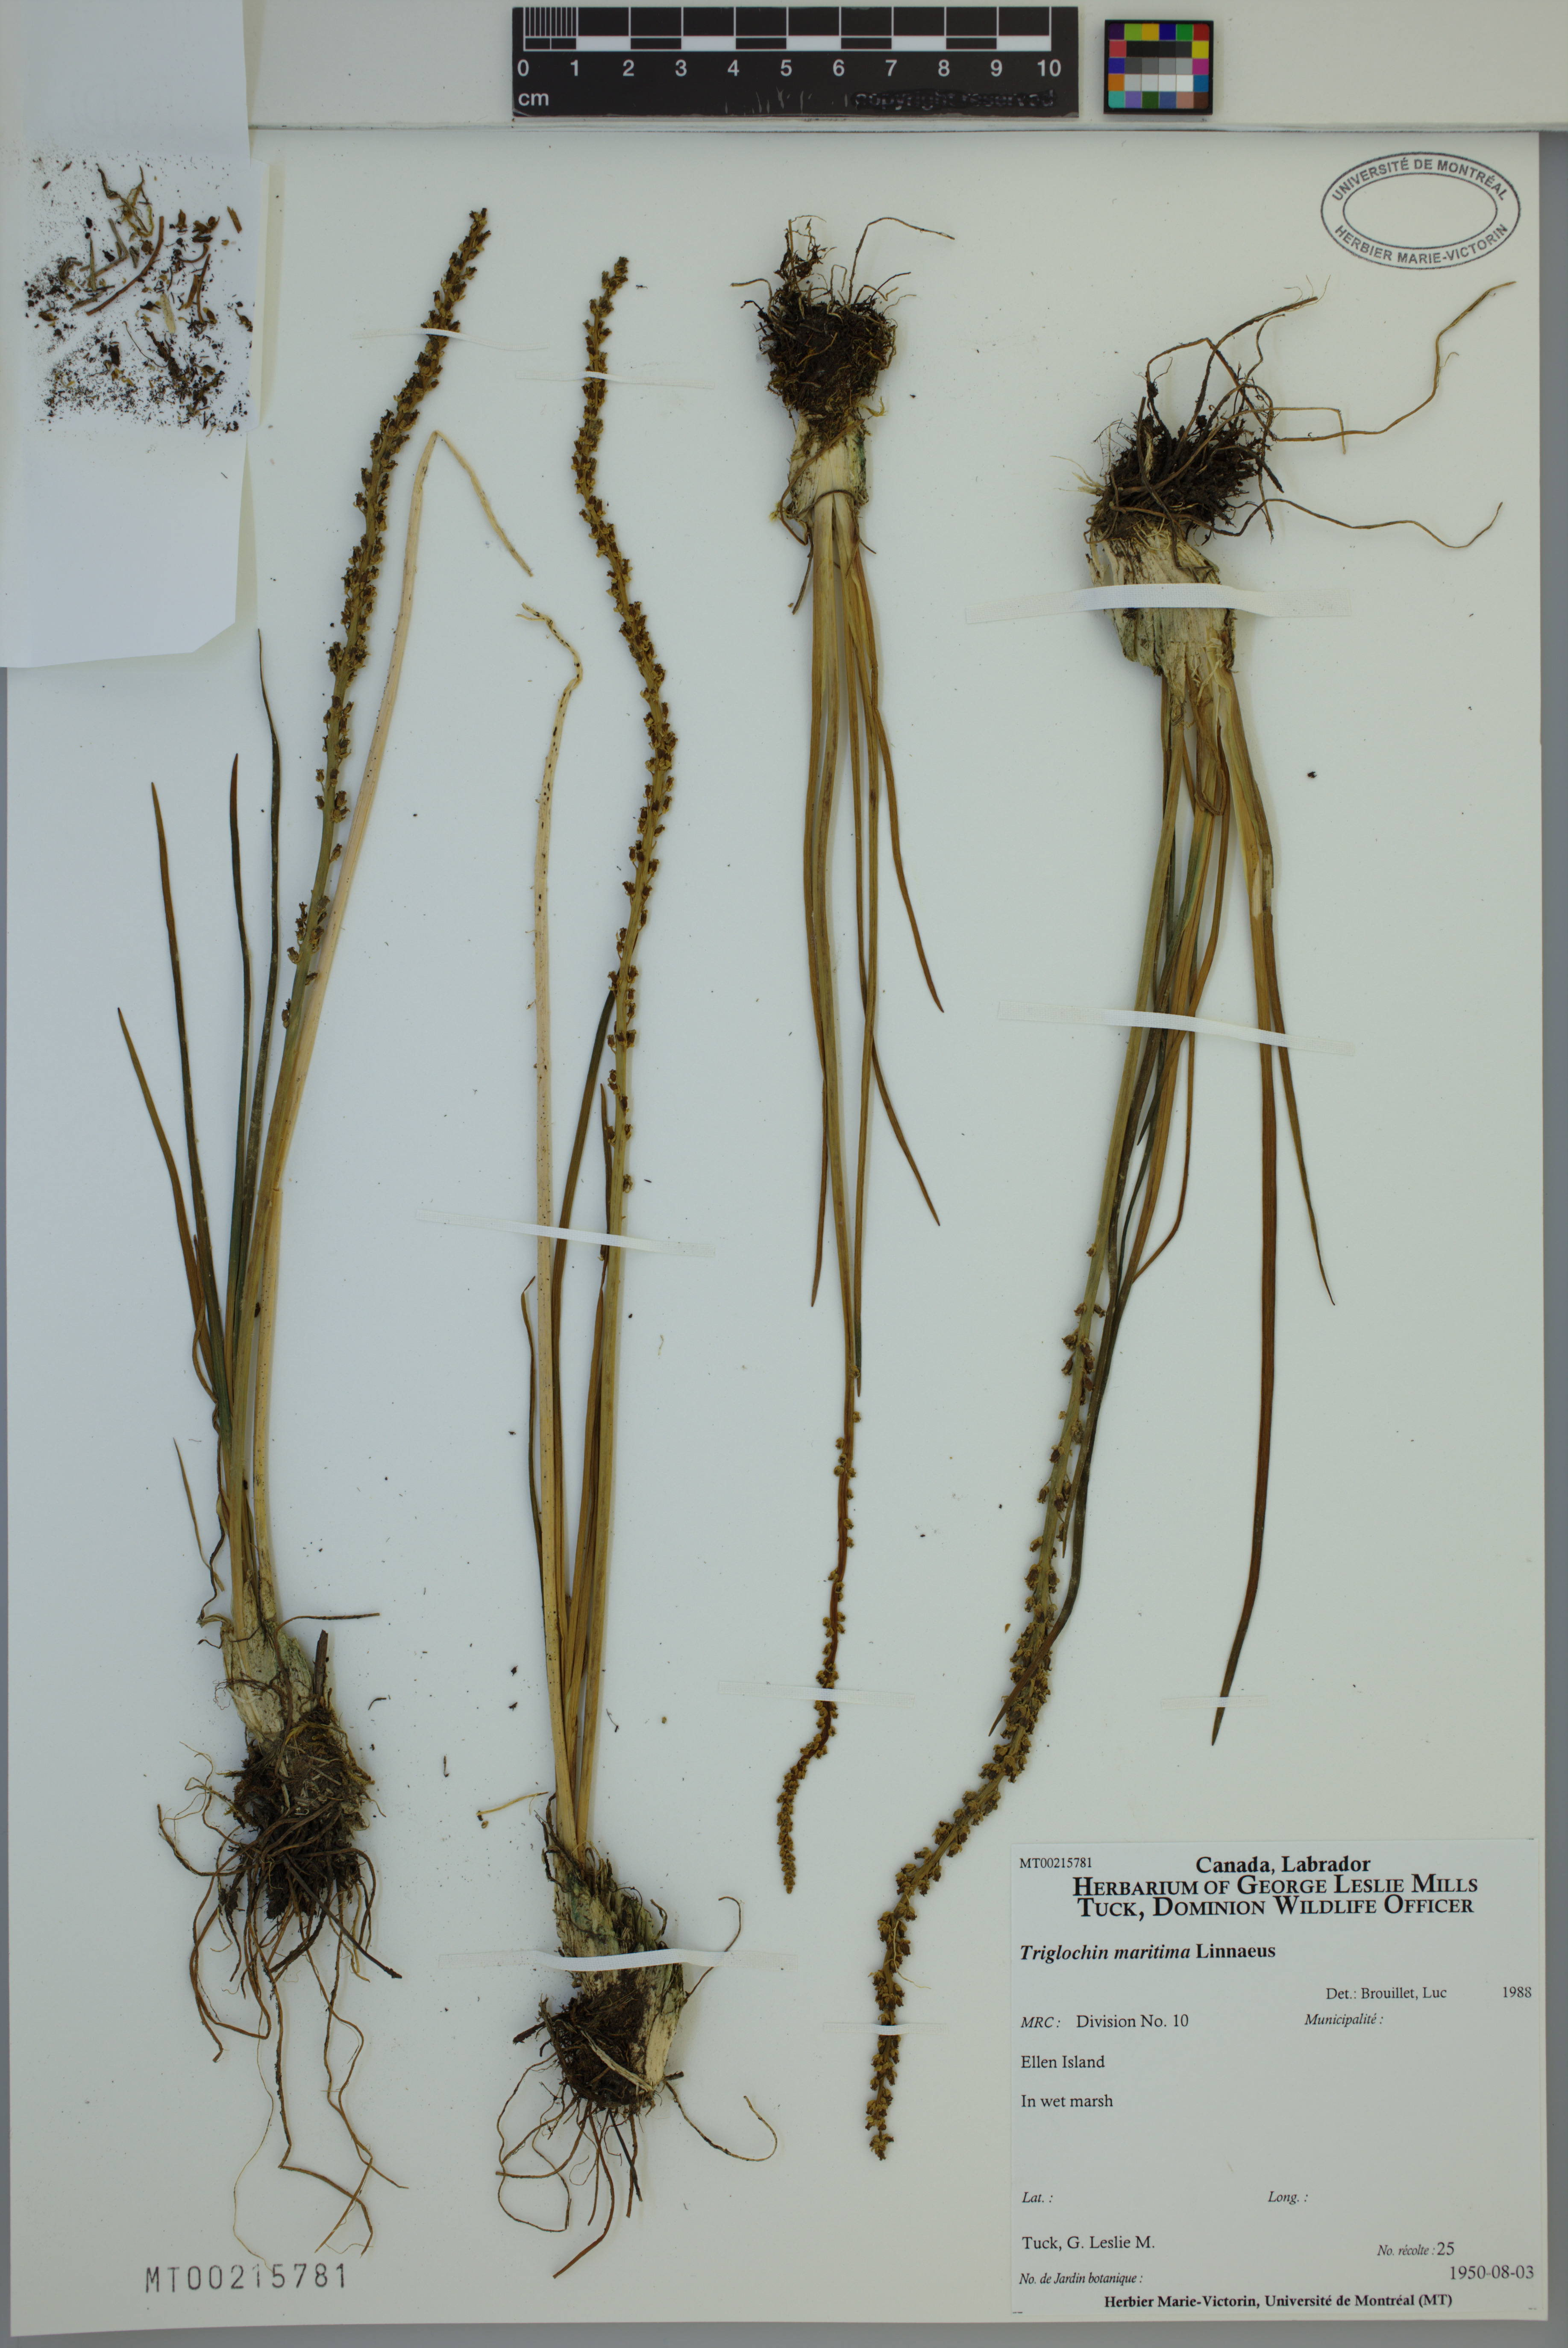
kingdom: Plantae
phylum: Tracheophyta
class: Liliopsida
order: Alismatales
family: Juncaginaceae
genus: Triglochin
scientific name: Triglochin maritima
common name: Sea arrowgrass
